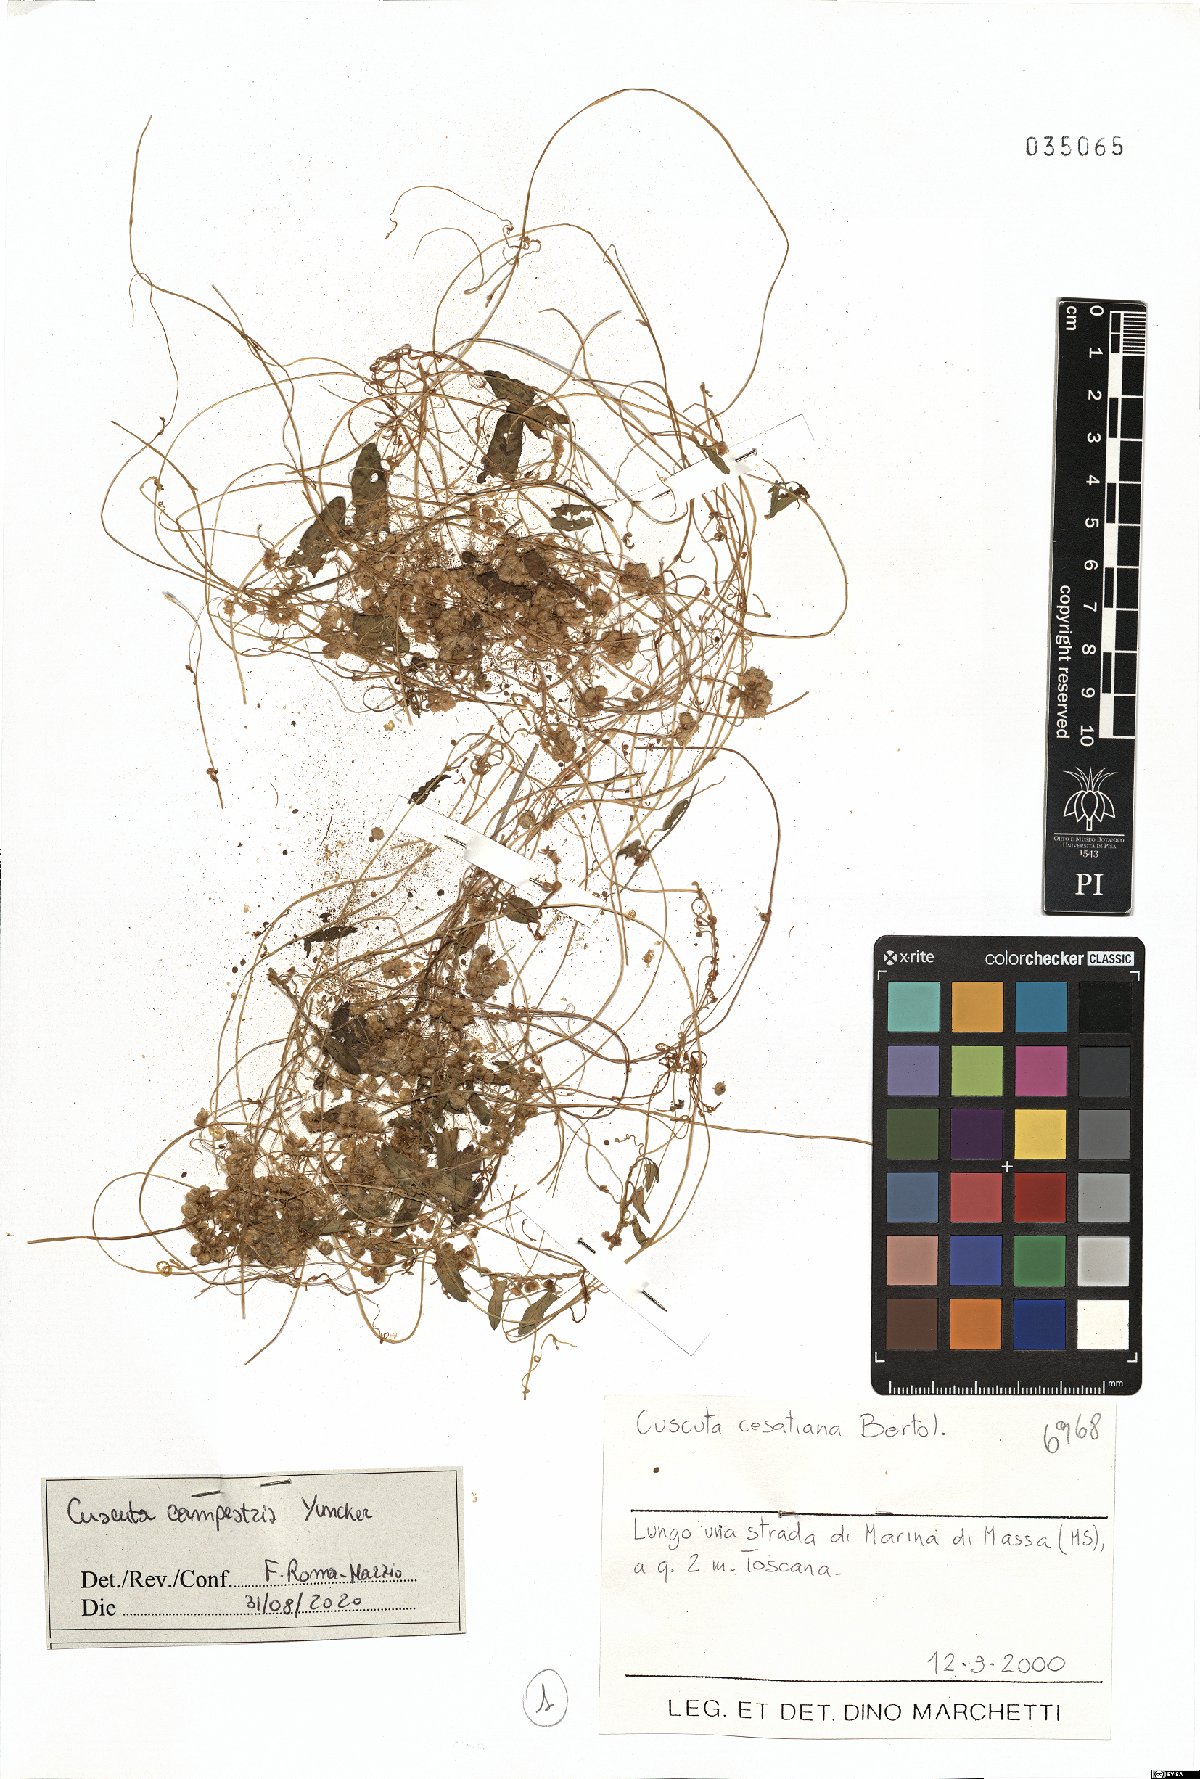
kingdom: Plantae
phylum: Tracheophyta
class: Magnoliopsida
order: Solanales
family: Convolvulaceae
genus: Cuscuta
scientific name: Cuscuta campestris
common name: Yellow dodder
